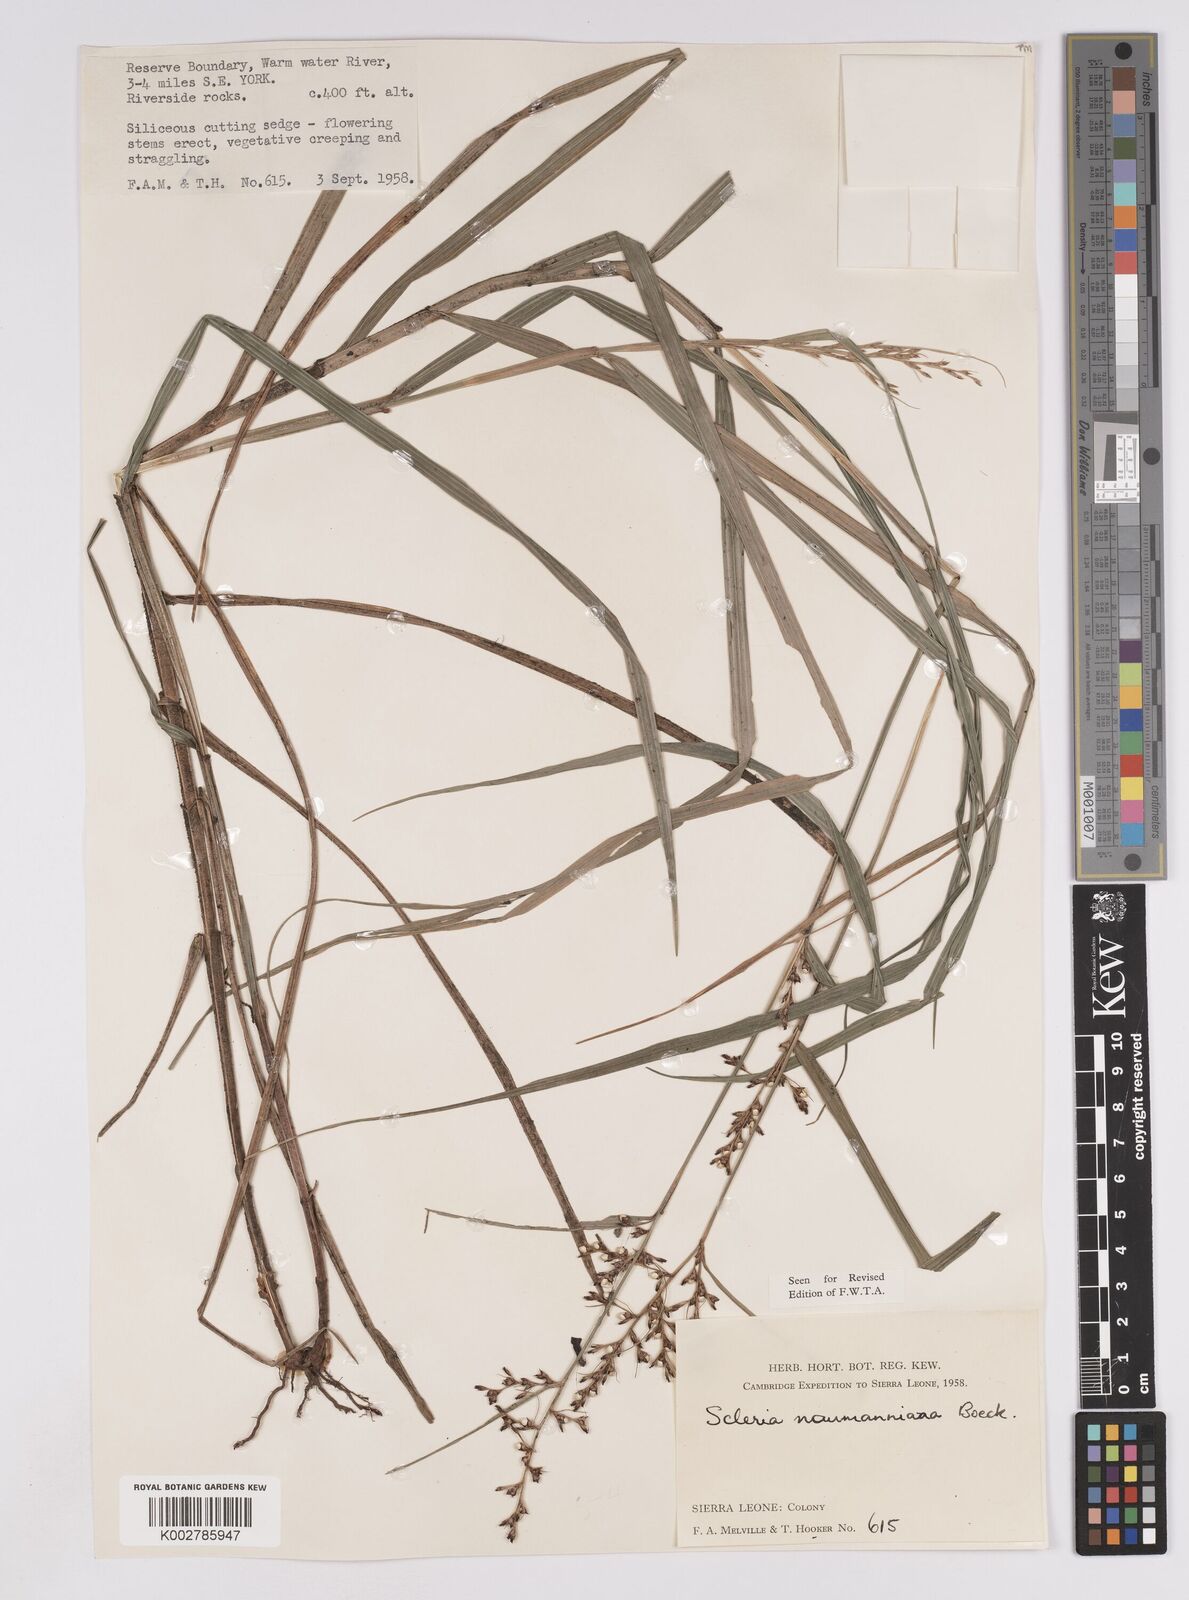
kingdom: Plantae
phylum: Tracheophyta
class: Liliopsida
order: Poales
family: Cyperaceae
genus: Scleria
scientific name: Scleria naumanniana
